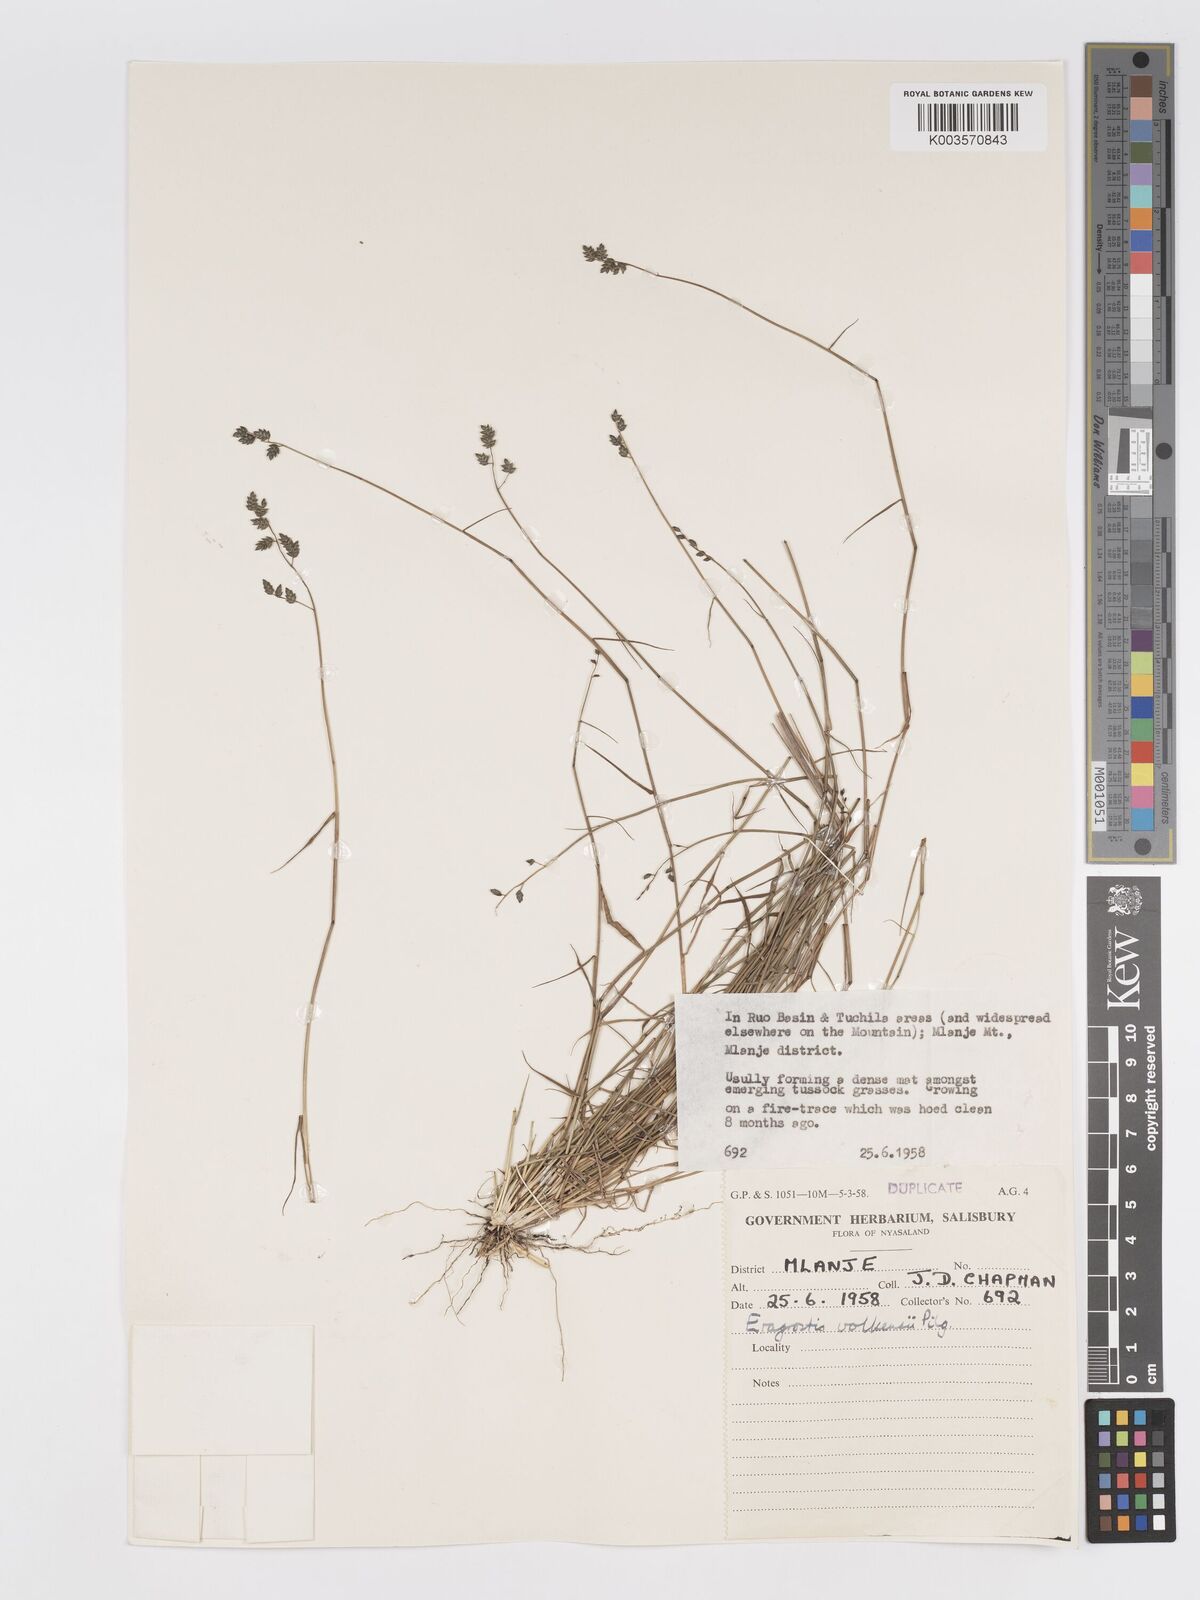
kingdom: Plantae
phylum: Tracheophyta
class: Liliopsida
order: Poales
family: Poaceae
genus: Eragrostis
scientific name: Eragrostis volkensii
